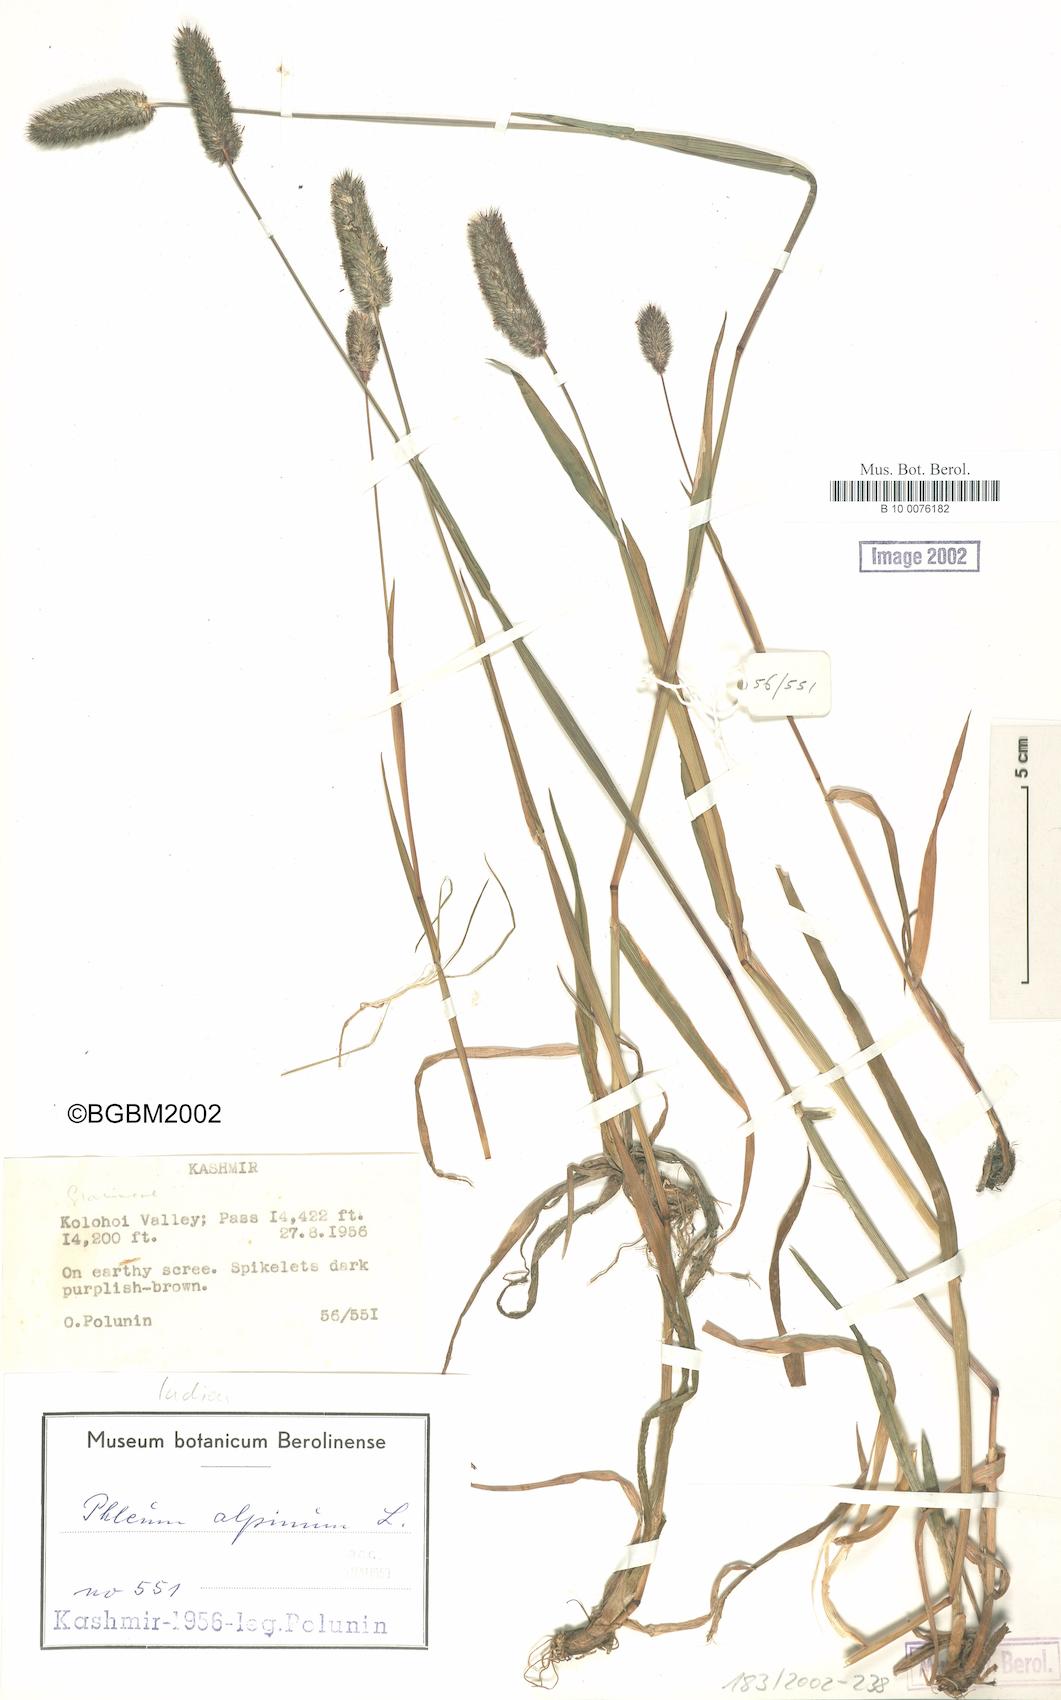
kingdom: Plantae
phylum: Tracheophyta
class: Liliopsida
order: Poales
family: Poaceae
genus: Phleum
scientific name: Phleum alpinum
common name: Alpine cat's-tail
